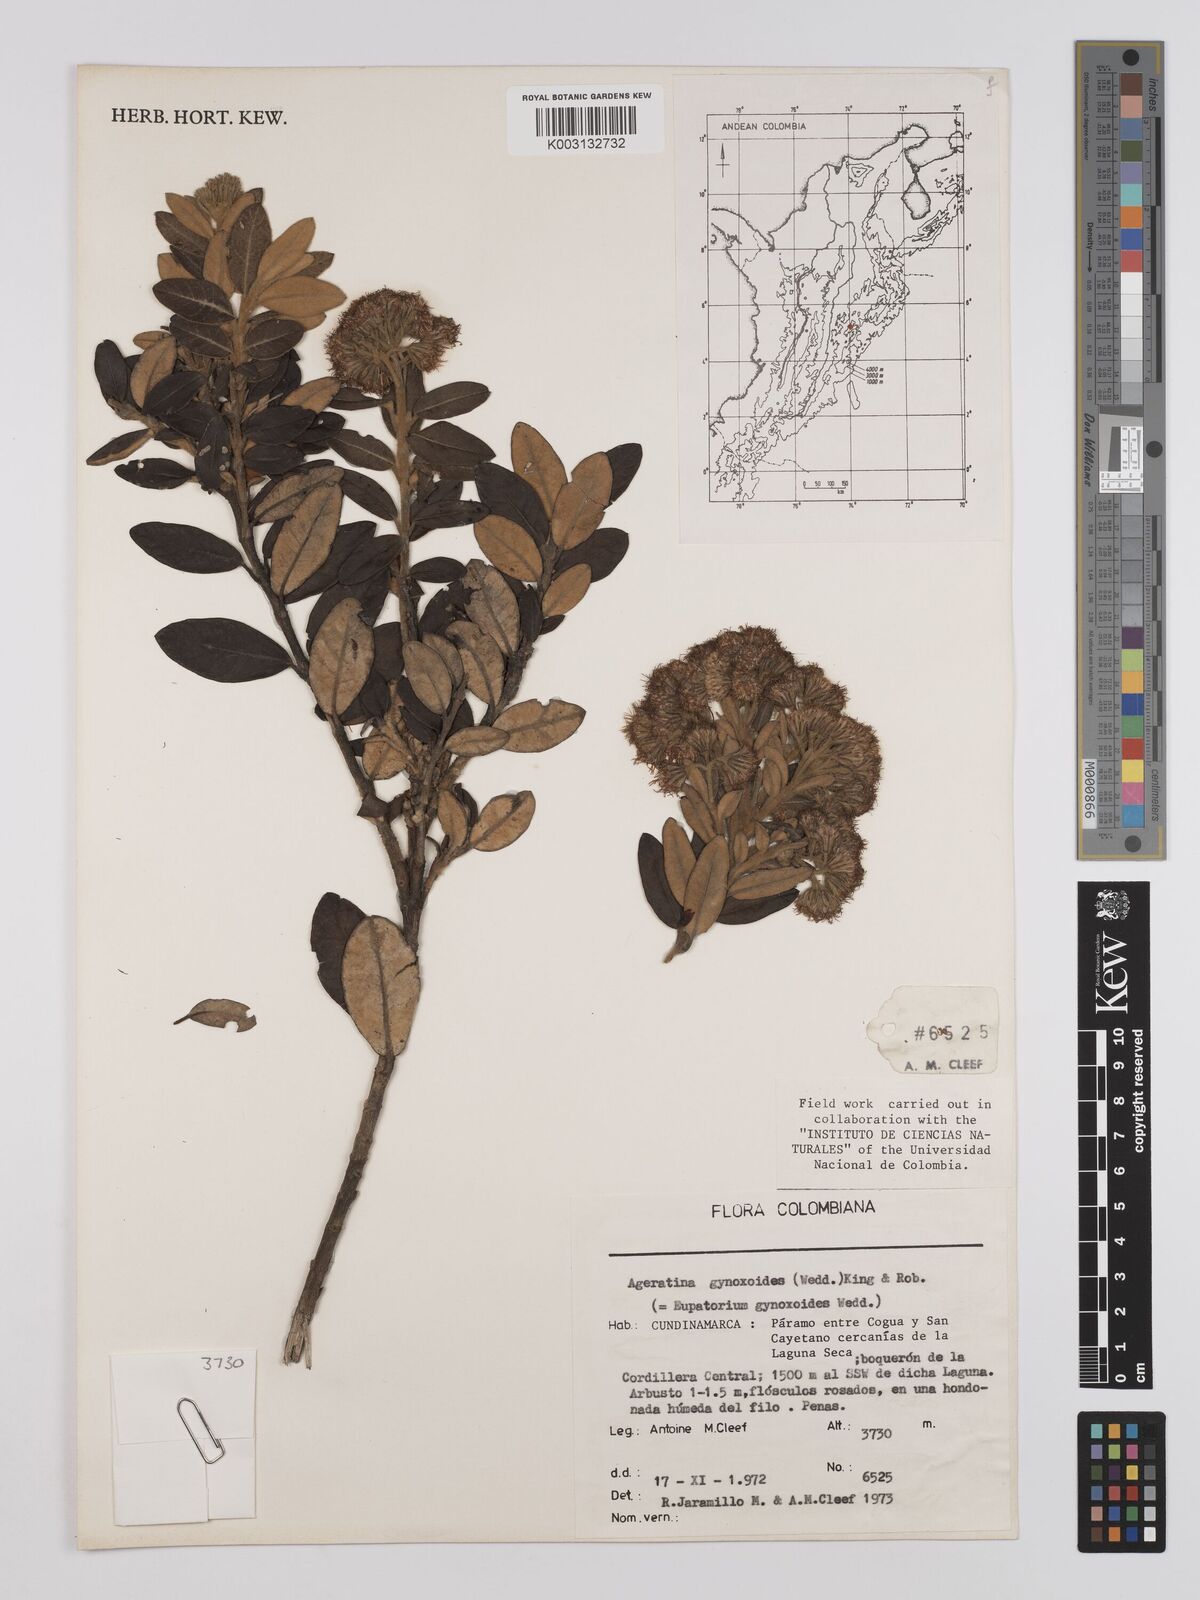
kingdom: Plantae
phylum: Tracheophyta
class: Magnoliopsida
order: Asterales
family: Asteraceae
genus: Ageratina
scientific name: Ageratina gynoxoides
